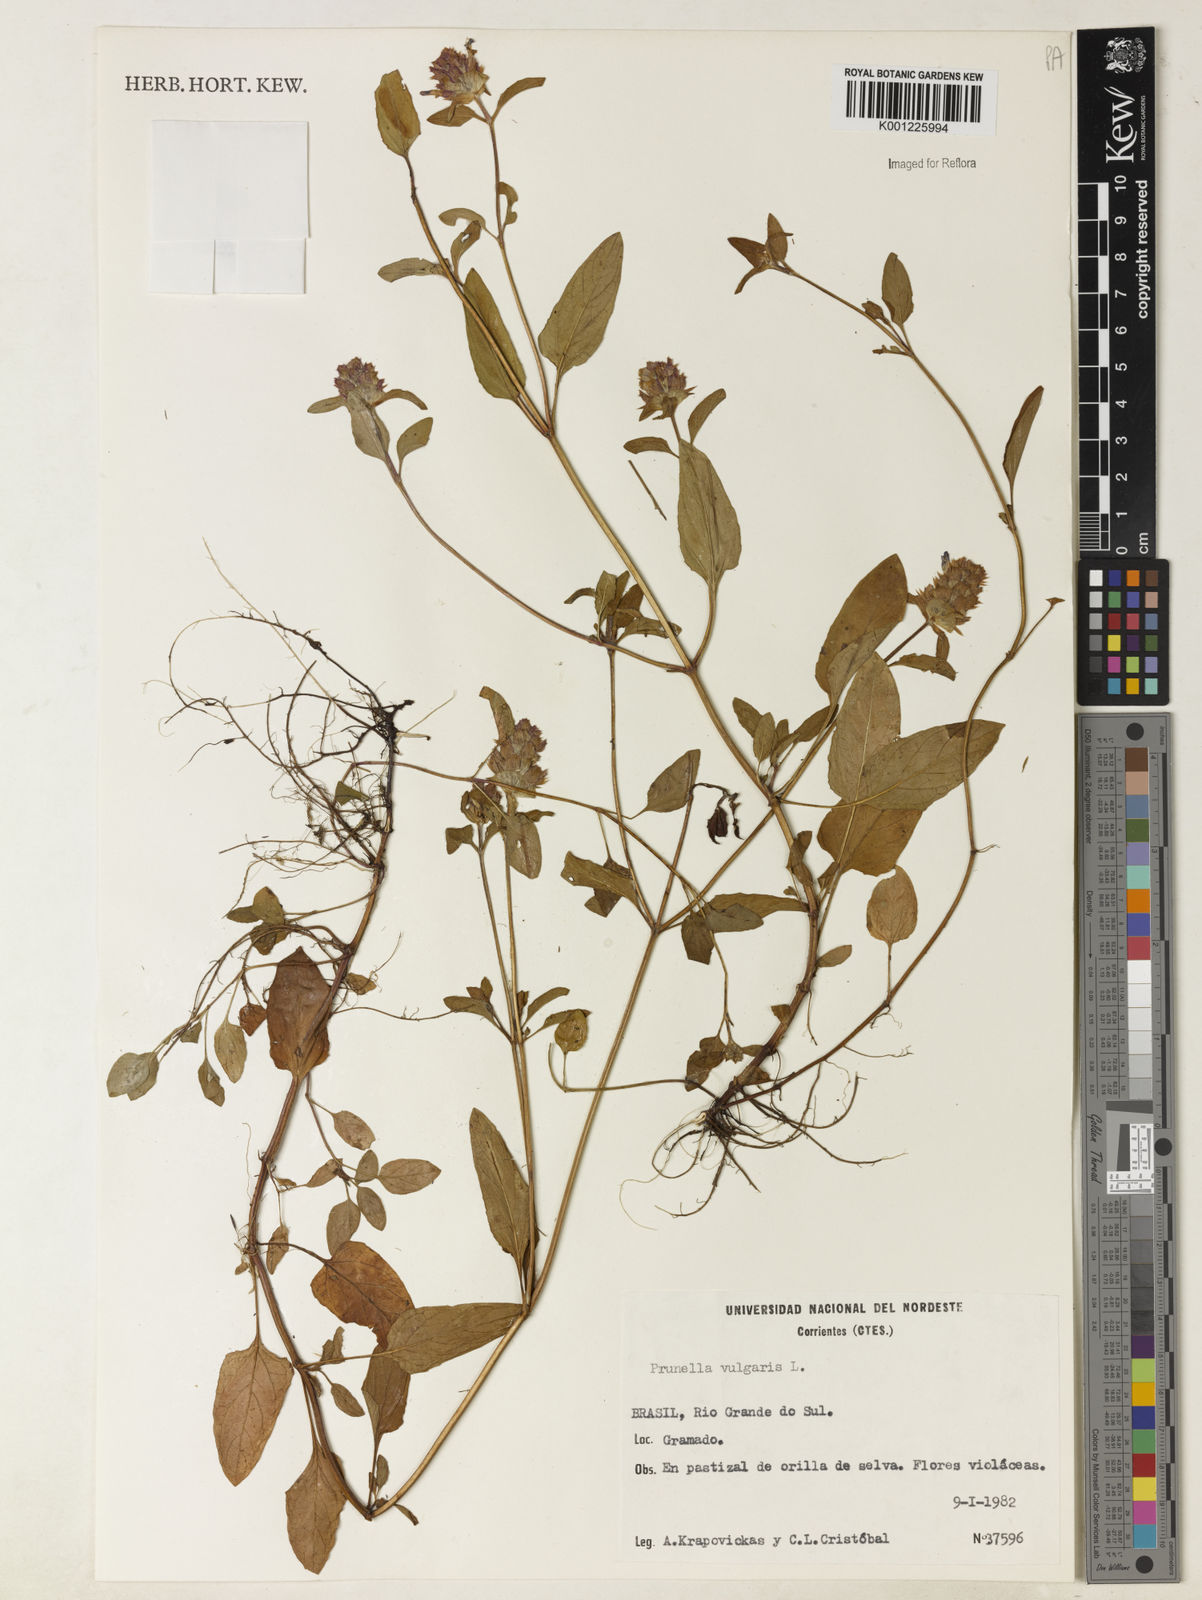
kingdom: Plantae
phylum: Tracheophyta
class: Magnoliopsida
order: Lamiales
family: Lamiaceae
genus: Prunella
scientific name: Prunella vulgaris
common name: Heal-all
